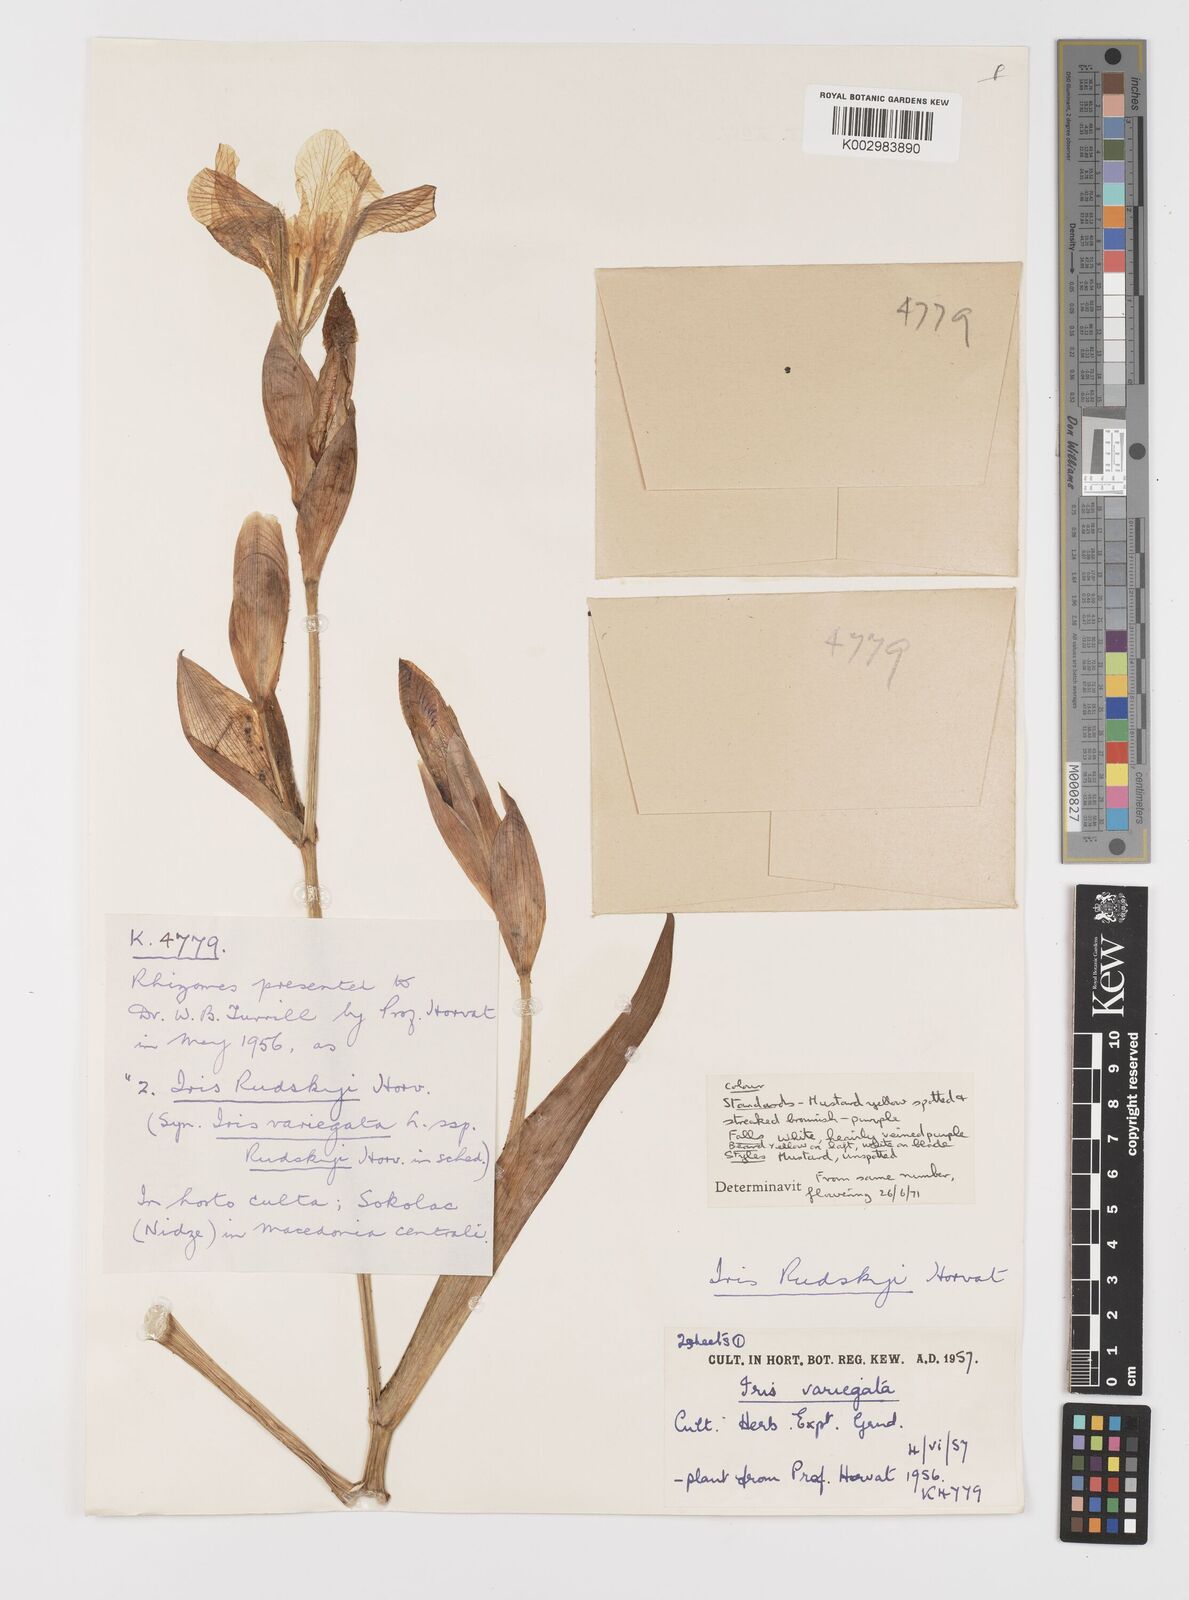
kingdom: Plantae
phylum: Tracheophyta
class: Liliopsida
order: Asparagales
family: Iridaceae
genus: Iris
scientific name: Iris variegata
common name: Hungarian iris
